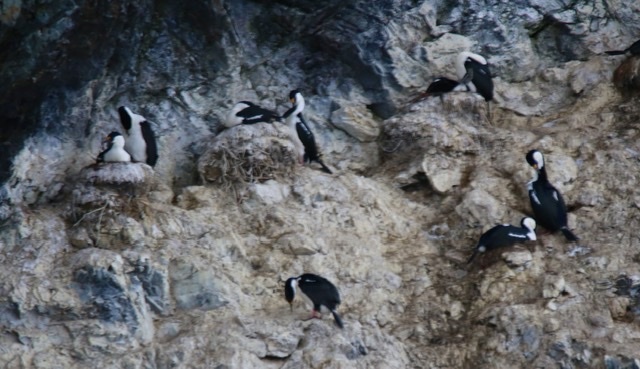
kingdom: Animalia
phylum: Chordata
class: Aves
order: Suliformes
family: Phalacrocoracidae
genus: Leucocarbo
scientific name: Leucocarbo atriceps
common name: Antarctic shag
